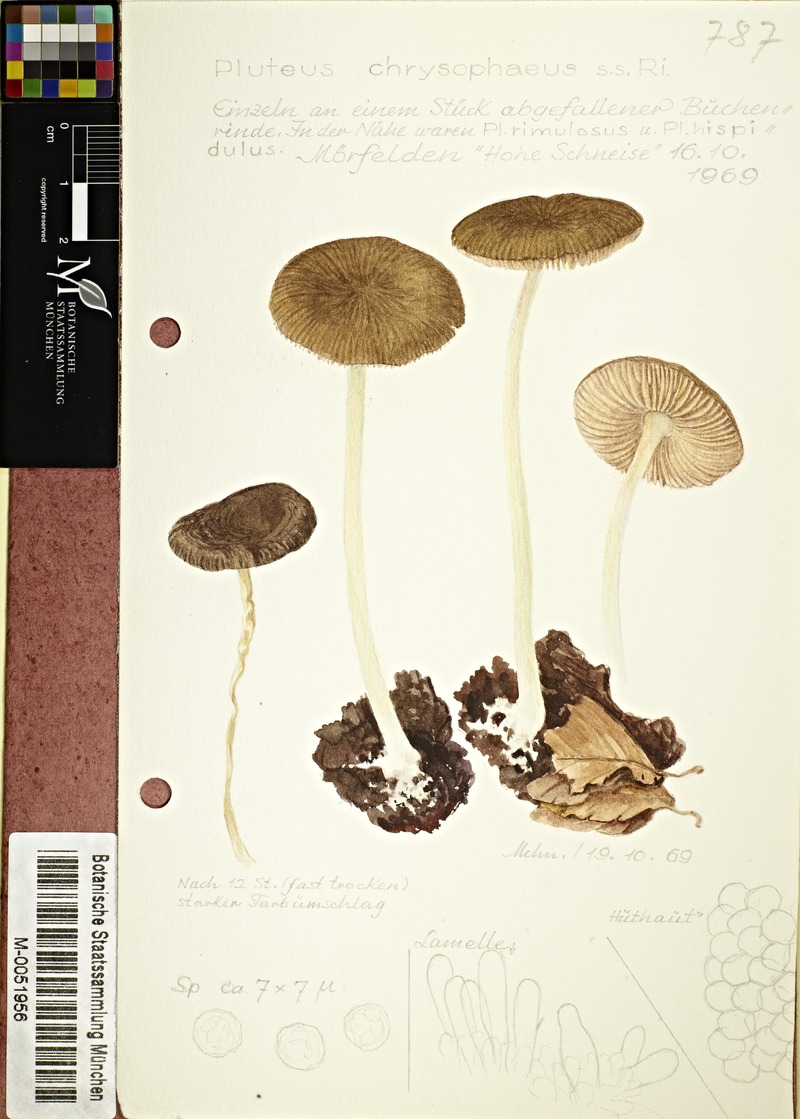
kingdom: Fungi
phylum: Basidiomycota
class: Agaricomycetes
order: Agaricales
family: Pluteaceae
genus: Pluteus
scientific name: Pluteus chrysophaeus
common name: Yellow shield
